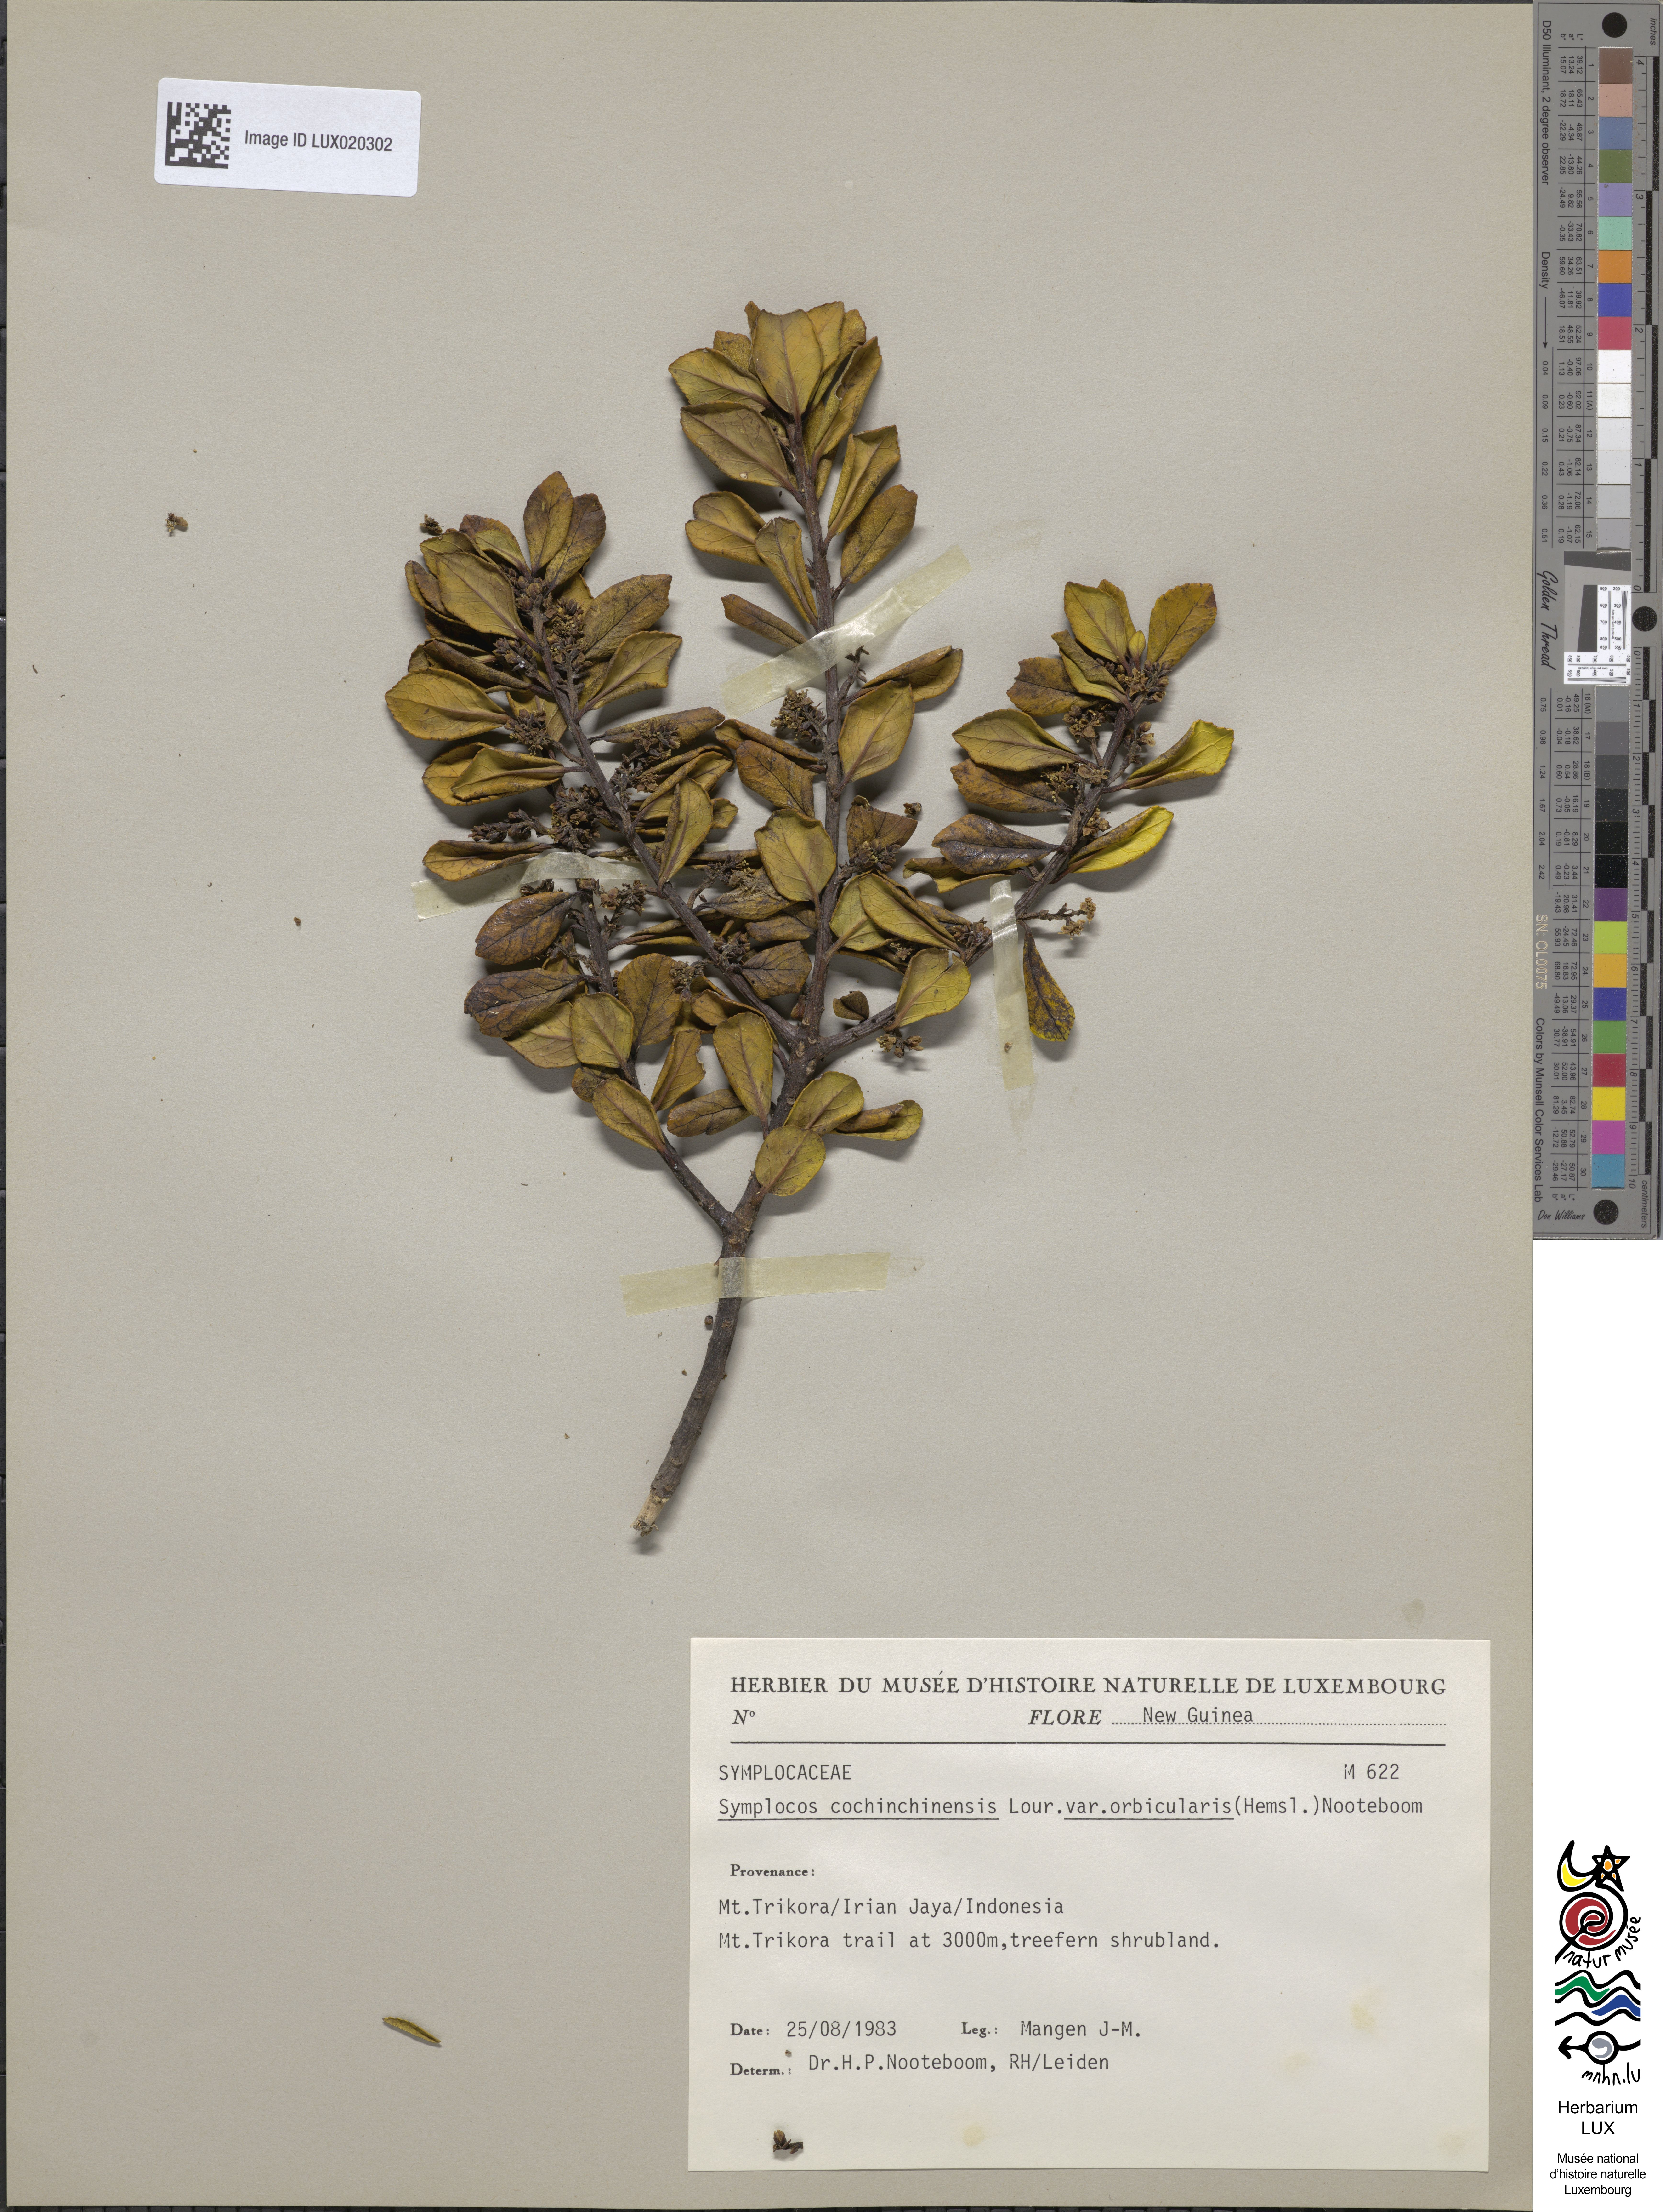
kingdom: Plantae
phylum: Tracheophyta
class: Magnoliopsida
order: Ericales
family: Symplocaceae
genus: Symplocos
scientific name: Symplocos orbicularis
